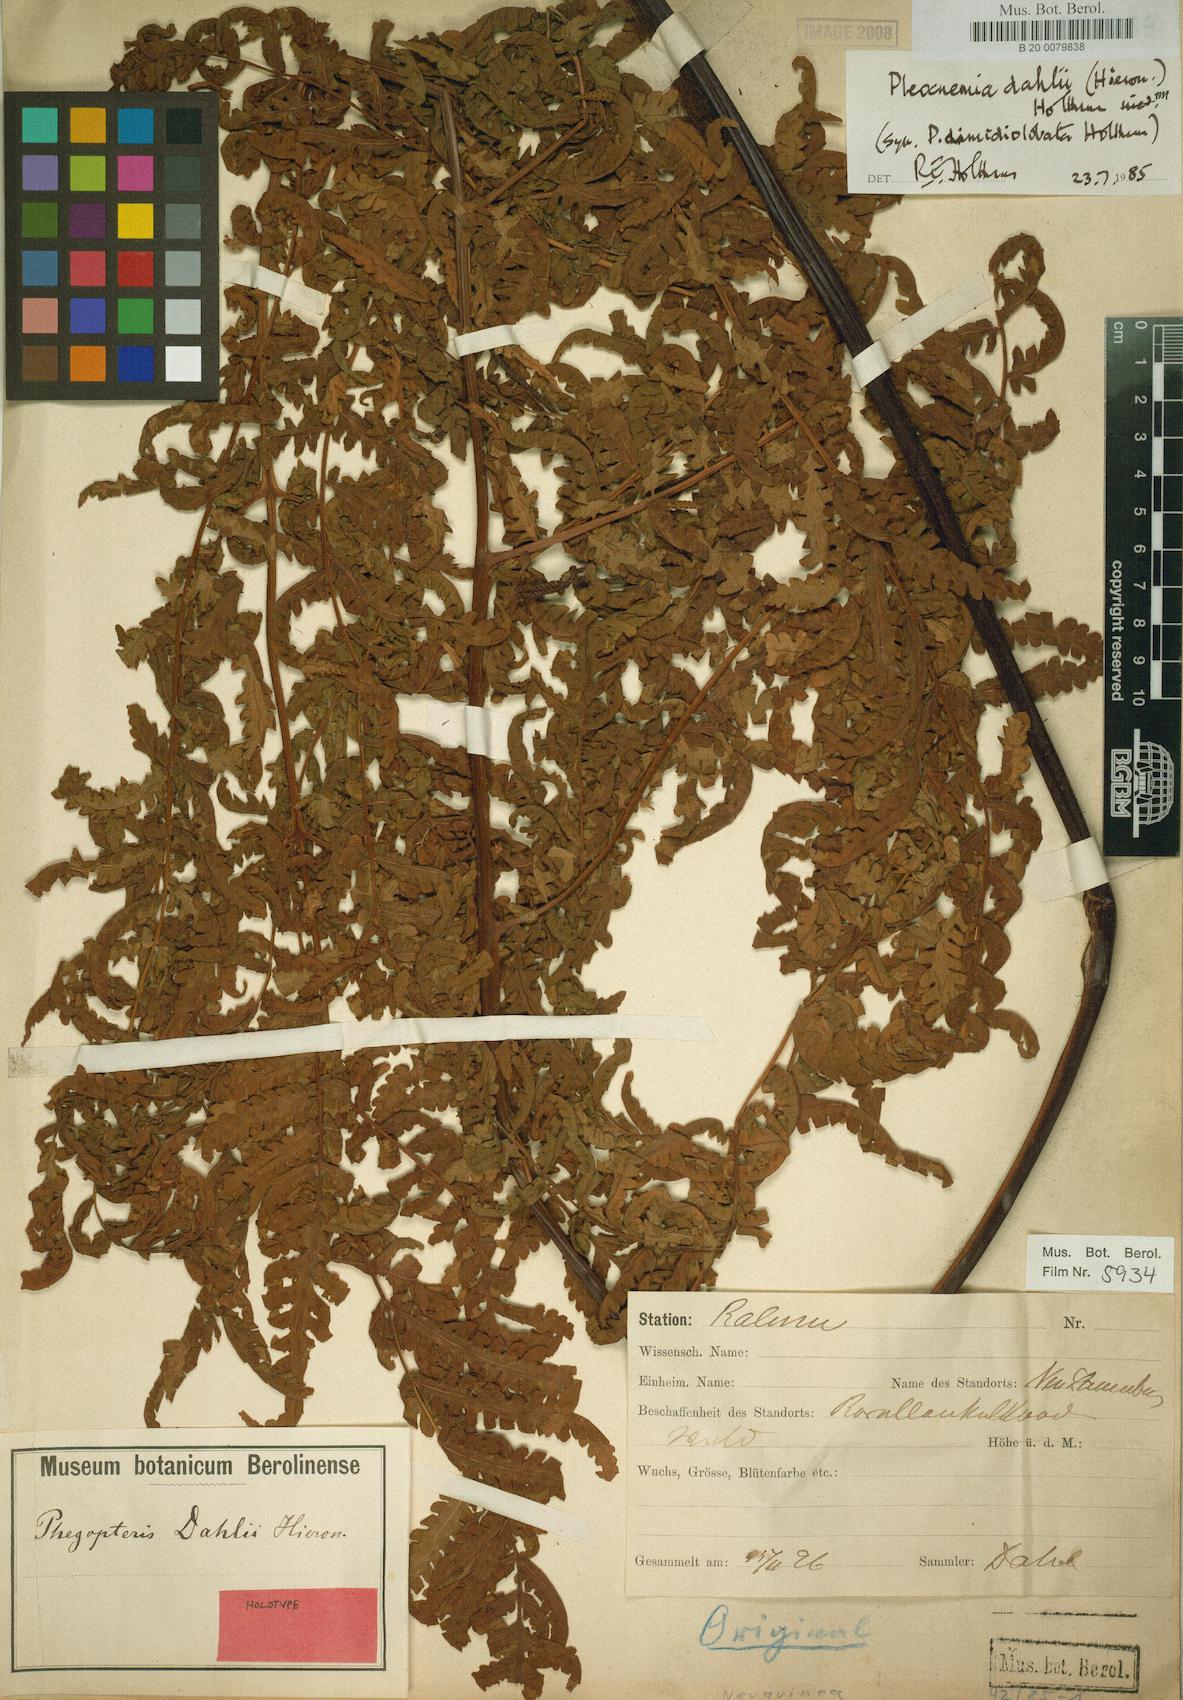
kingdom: Plantae
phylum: Tracheophyta
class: Polypodiopsida
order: Polypodiales
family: Dryopteridaceae
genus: Pleocnemia
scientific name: Pleocnemia dahlii
